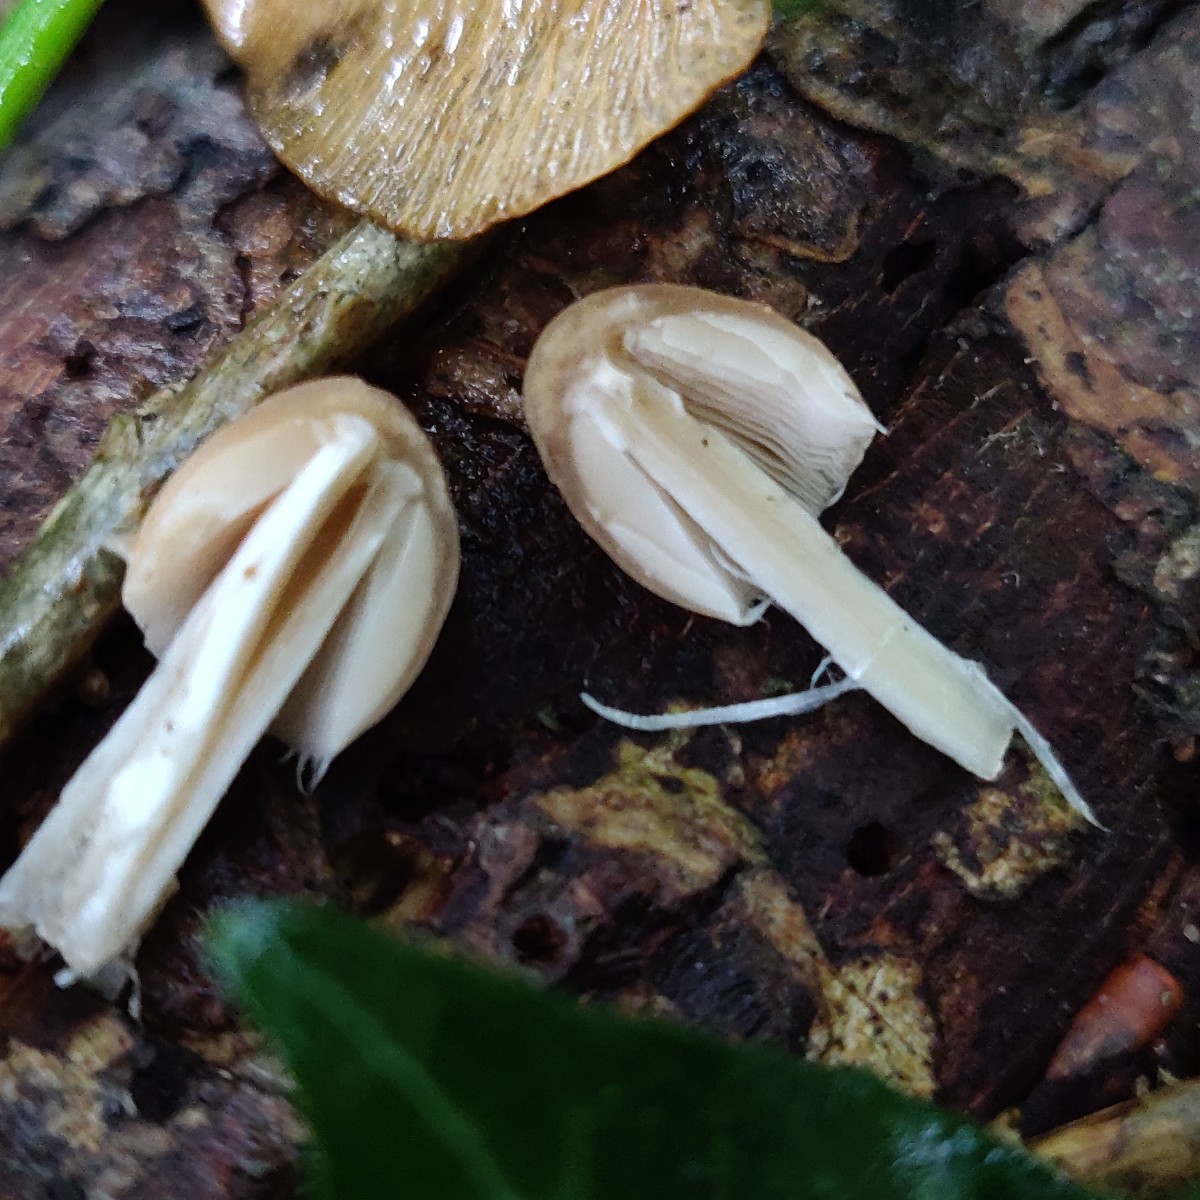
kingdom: Fungi
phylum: Basidiomycota
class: Agaricomycetes
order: Agaricales
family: Psathyrellaceae
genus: Britzelmayria
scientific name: Britzelmayria multipedata
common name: knippe-mørkhat
